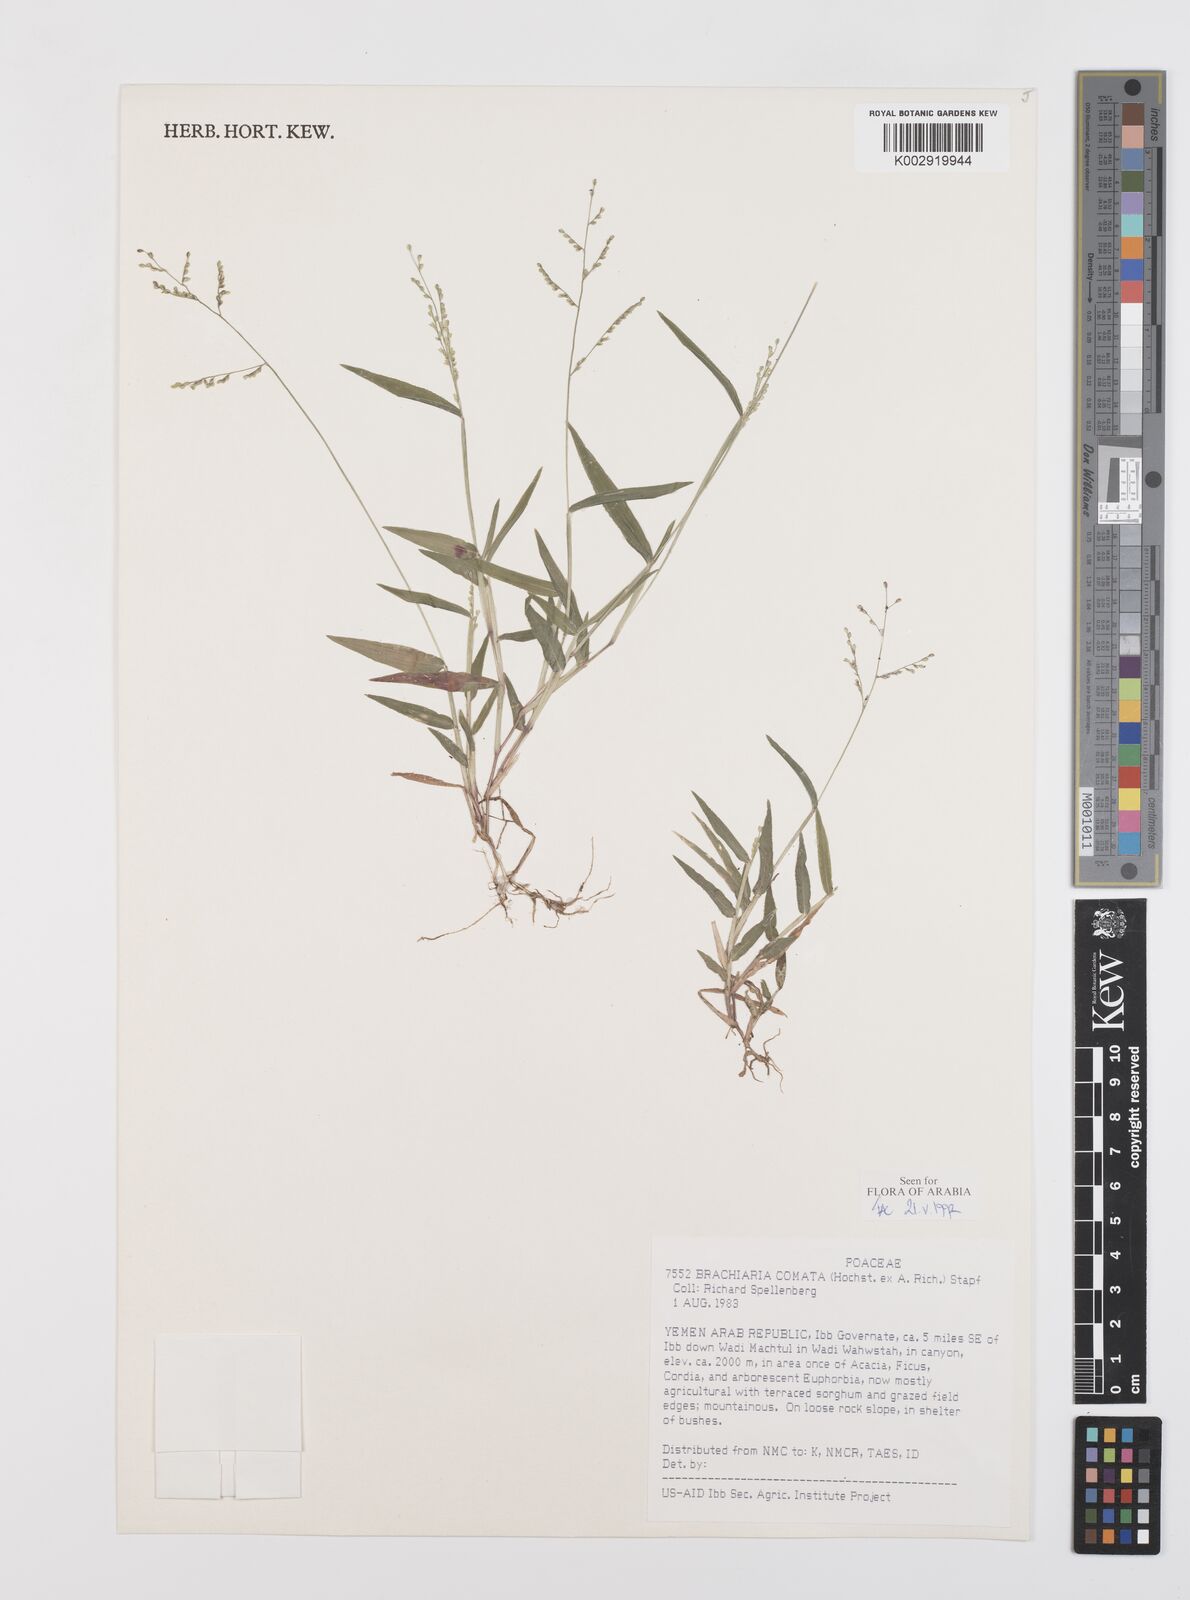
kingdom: Plantae
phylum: Tracheophyta
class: Liliopsida
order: Poales
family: Poaceae
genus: Urochloa
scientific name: Urochloa comata
